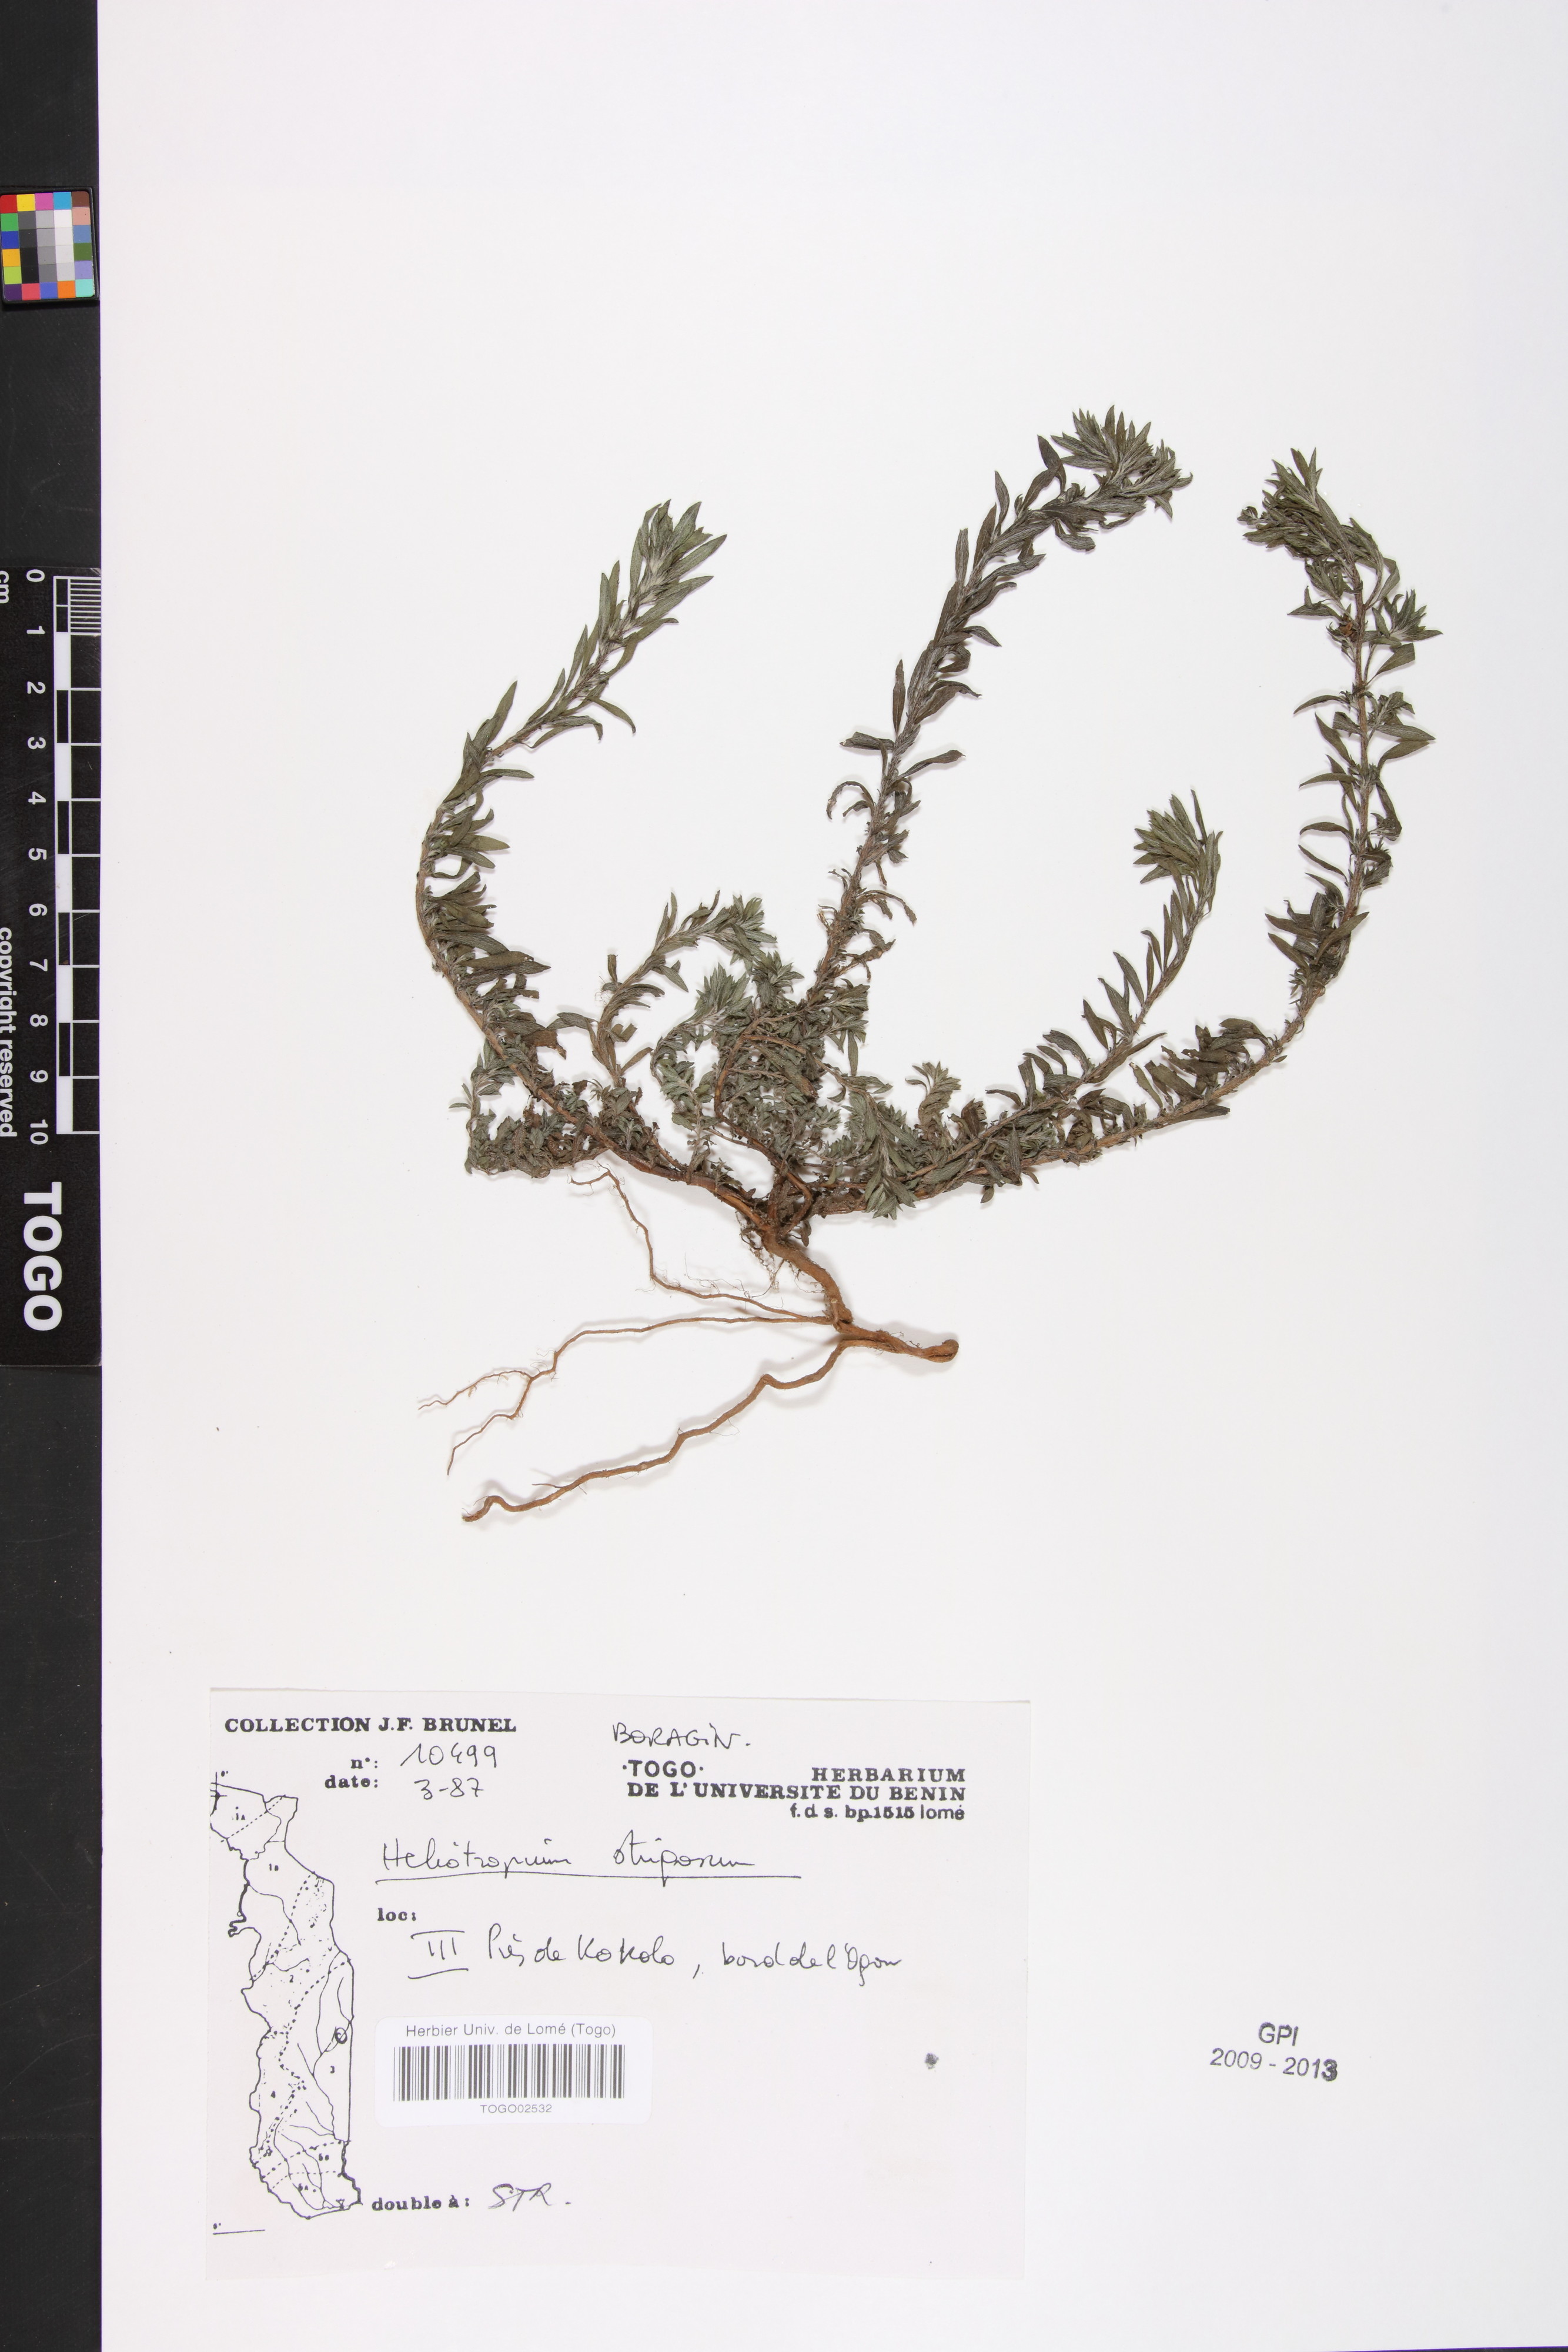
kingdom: Plantae
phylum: Tracheophyta
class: Magnoliopsida
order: Boraginales
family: Heliotropiaceae
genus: Euploca
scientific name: Euploca strigosa
